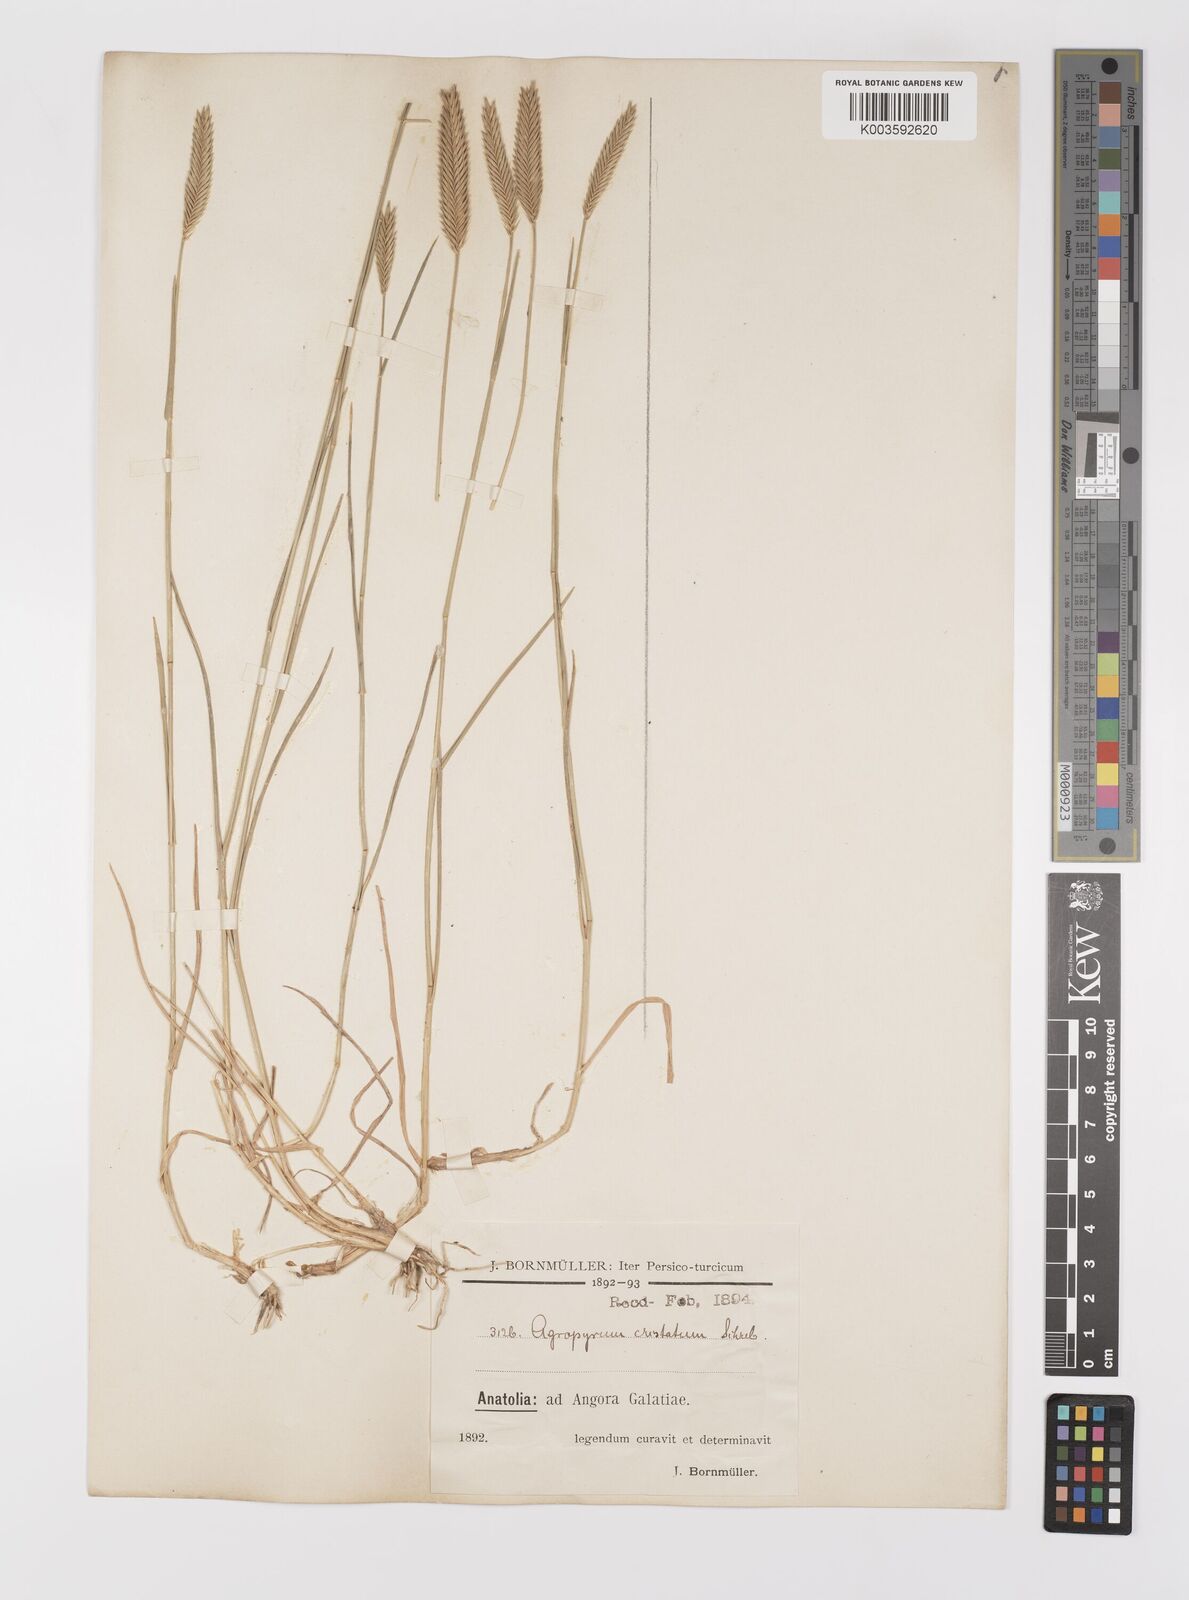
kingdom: Plantae
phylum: Tracheophyta
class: Liliopsida
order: Poales
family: Poaceae
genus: Agropyron
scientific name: Agropyron cristatum
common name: Crested wheatgrass
